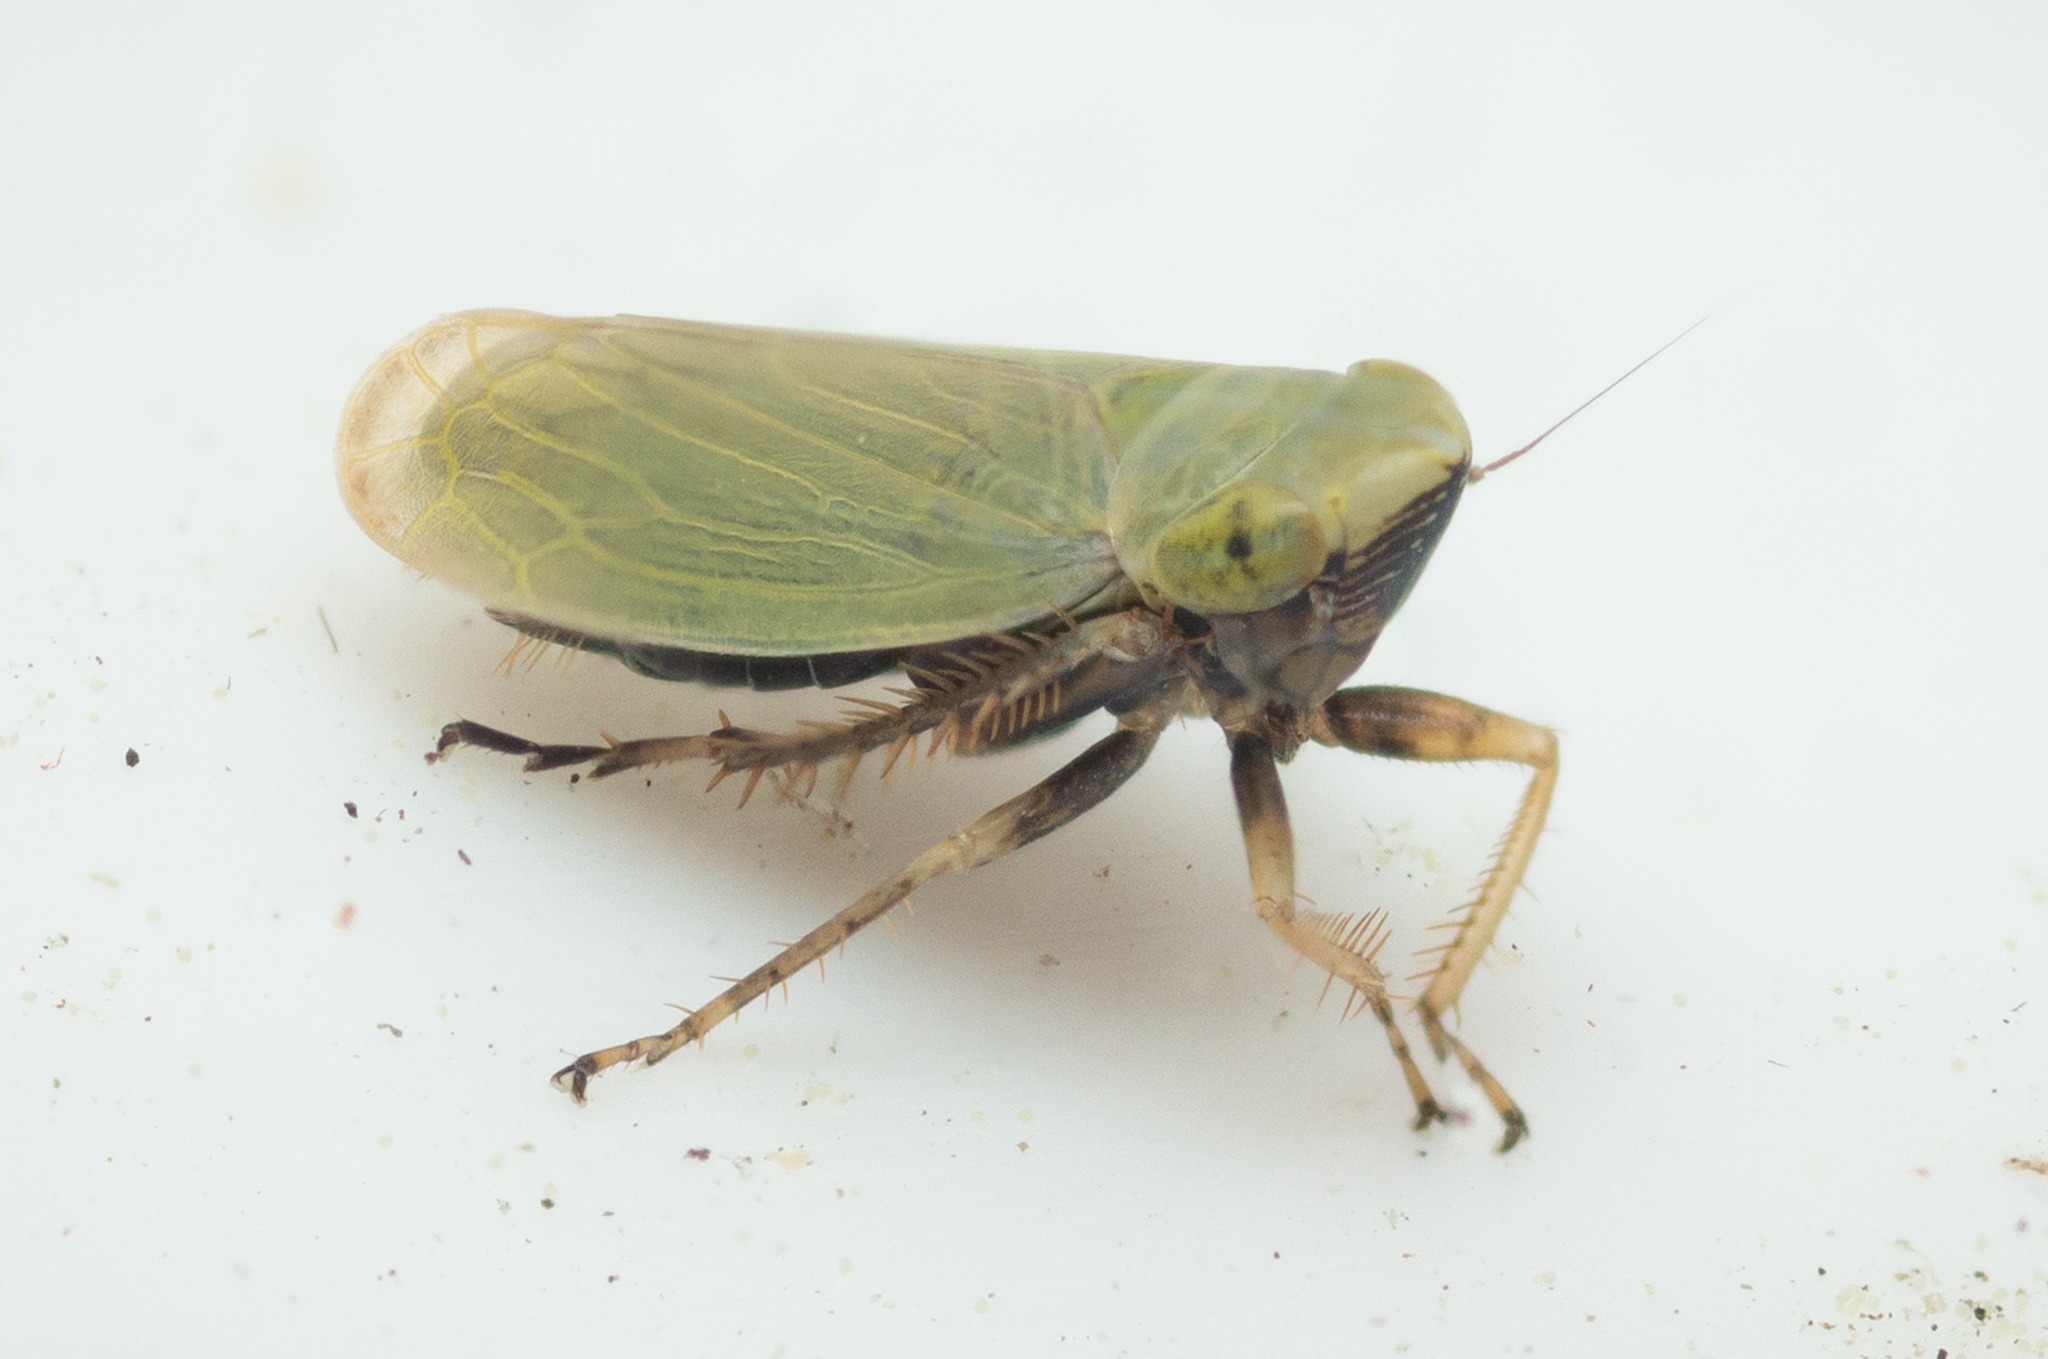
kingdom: Animalia
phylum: Arthropoda
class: Insecta
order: Hemiptera
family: Cicadellidae
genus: Arthaldeus
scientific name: Arthaldeus pascuellus
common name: Harrilgræscikade
